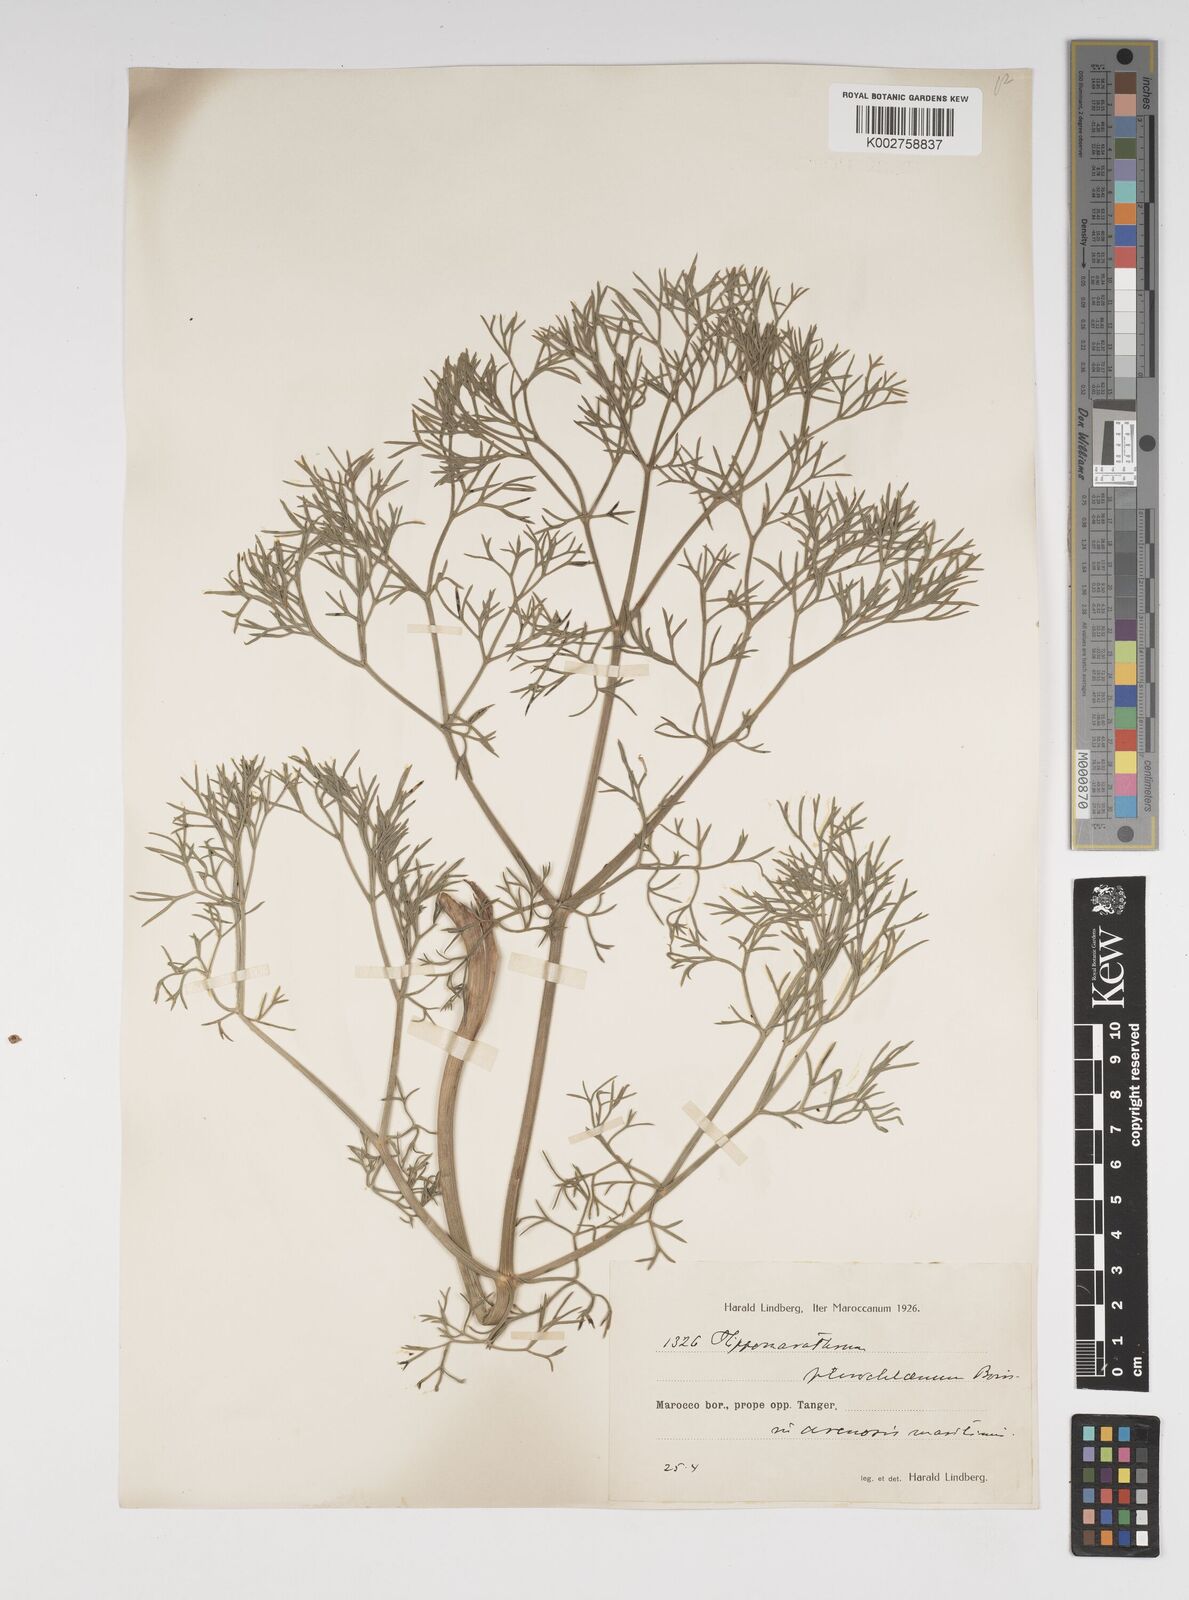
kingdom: Plantae
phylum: Tracheophyta
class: Magnoliopsida
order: Apiales
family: Apiaceae
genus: Cachrys
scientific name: Cachrys sicula
